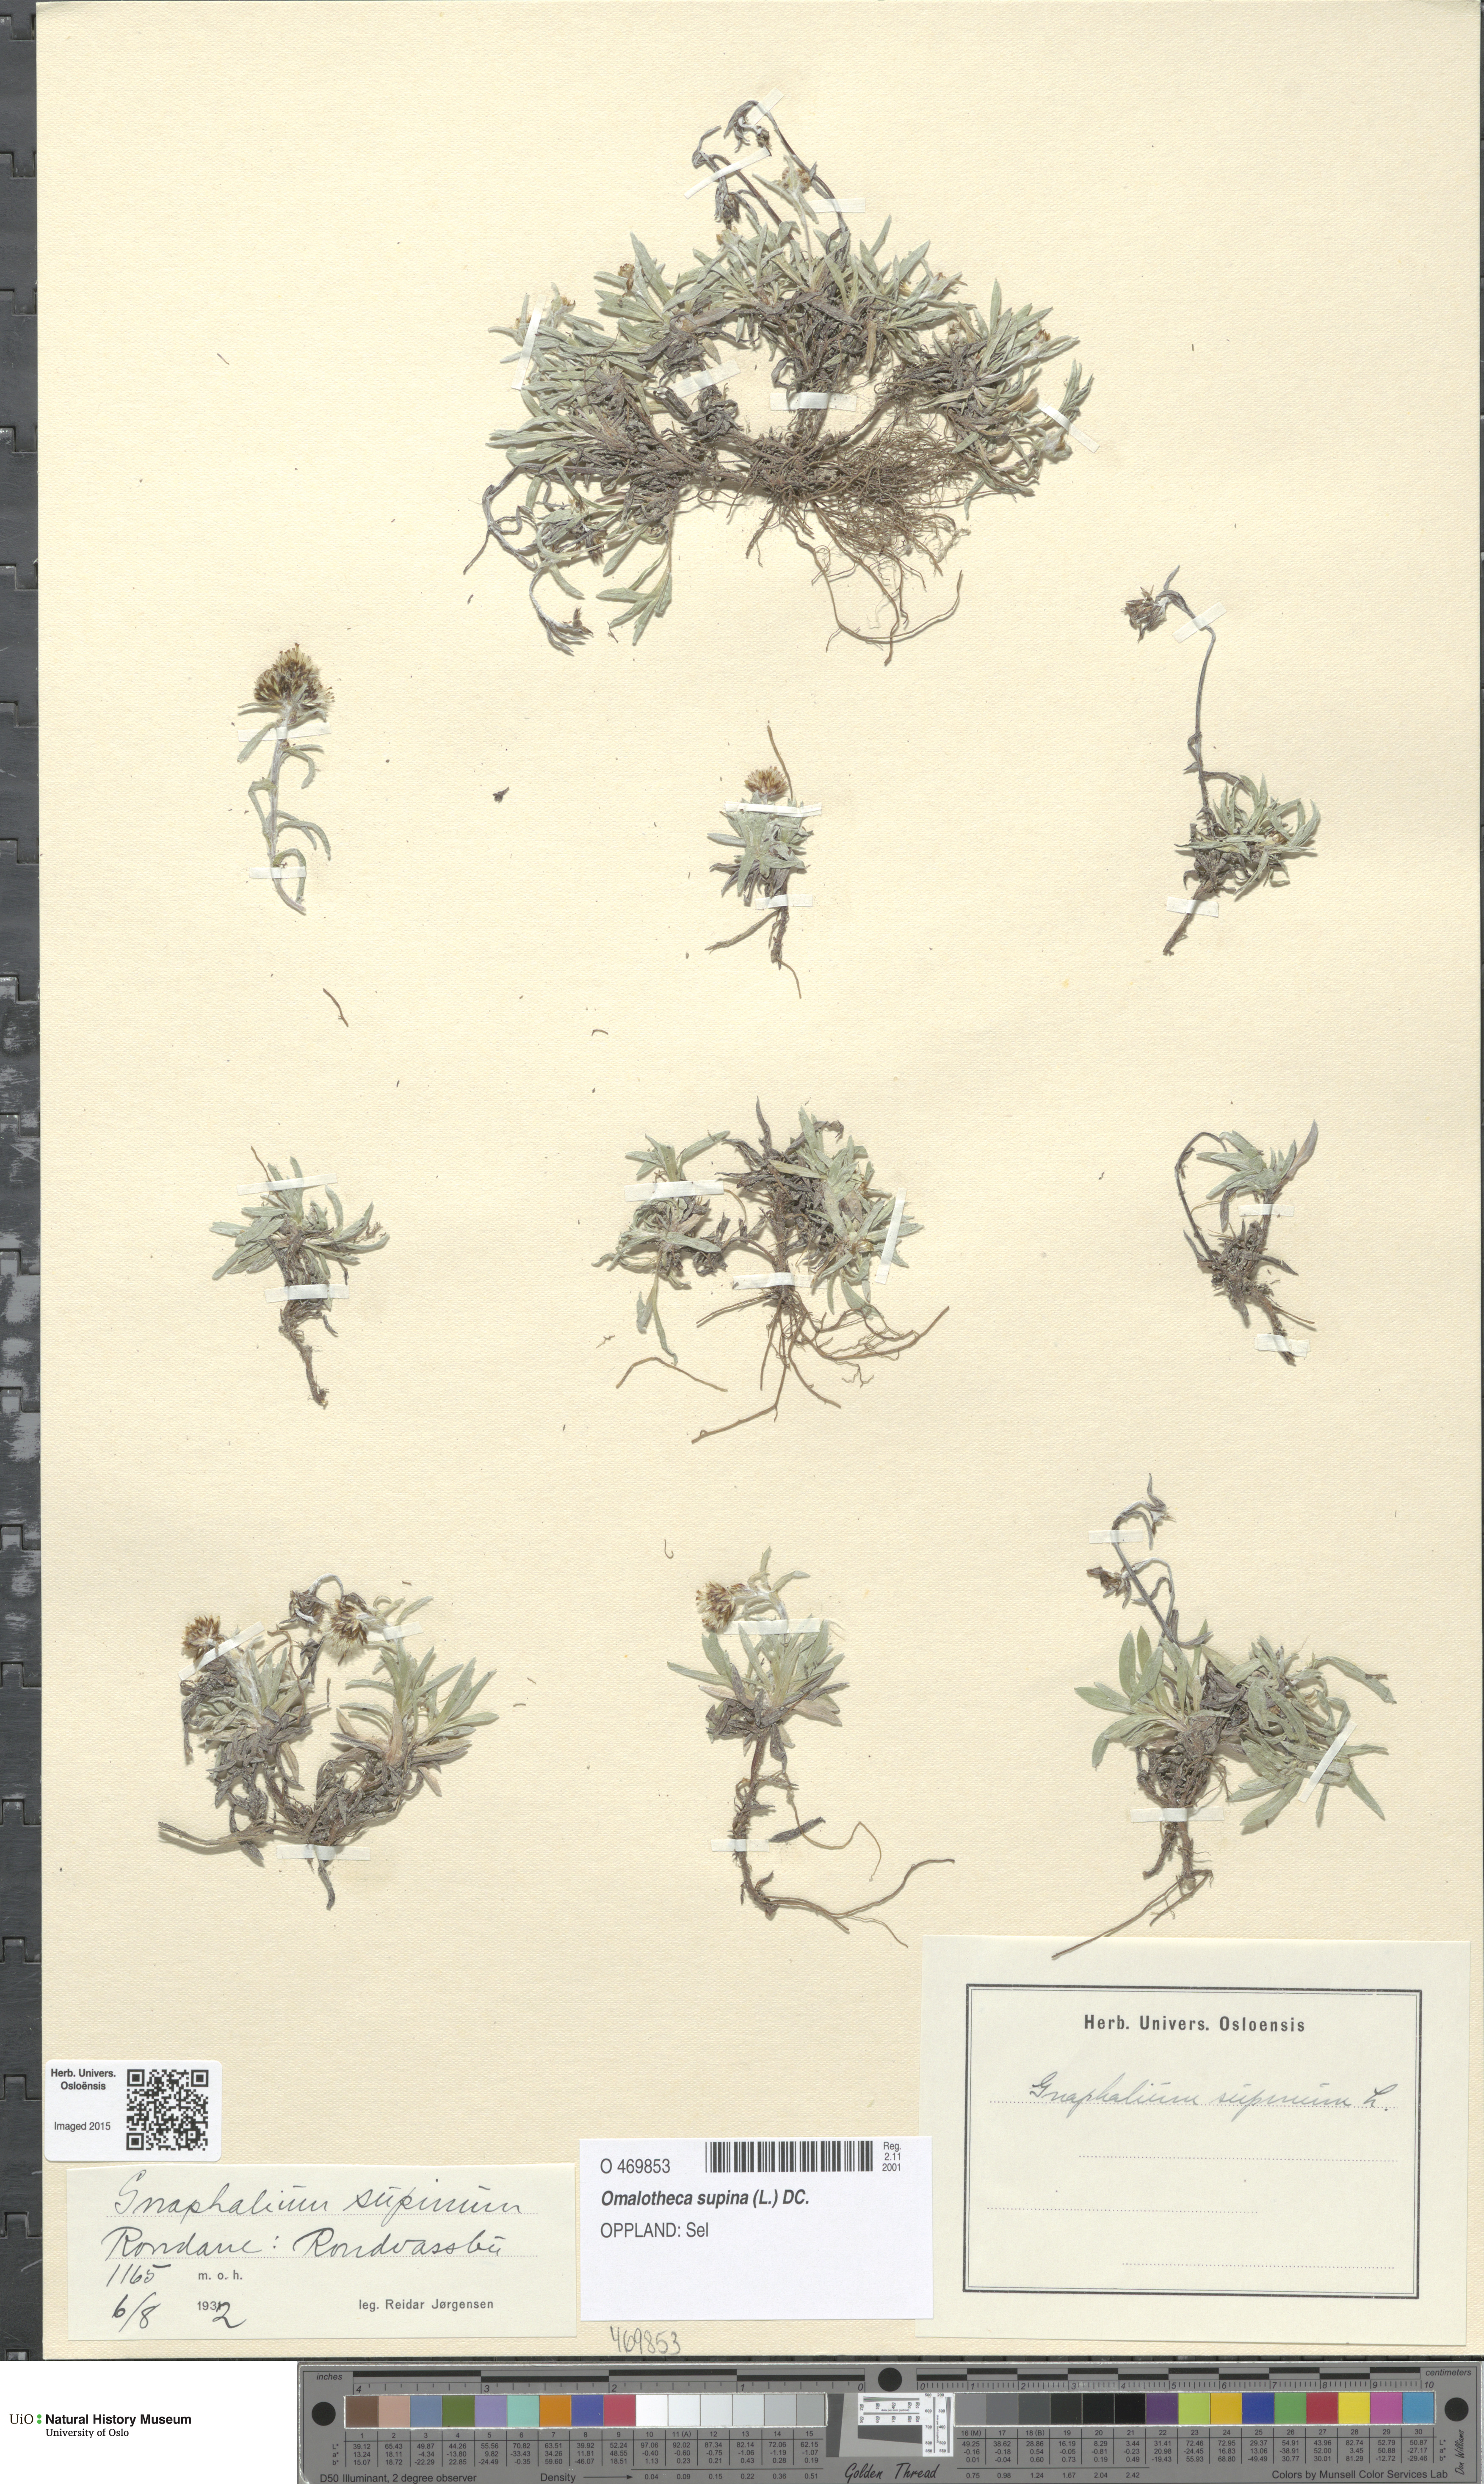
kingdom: Plantae
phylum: Tracheophyta
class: Magnoliopsida
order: Asterales
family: Asteraceae
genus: Omalotheca
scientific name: Omalotheca supina
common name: Alpine arctic-cudweed
